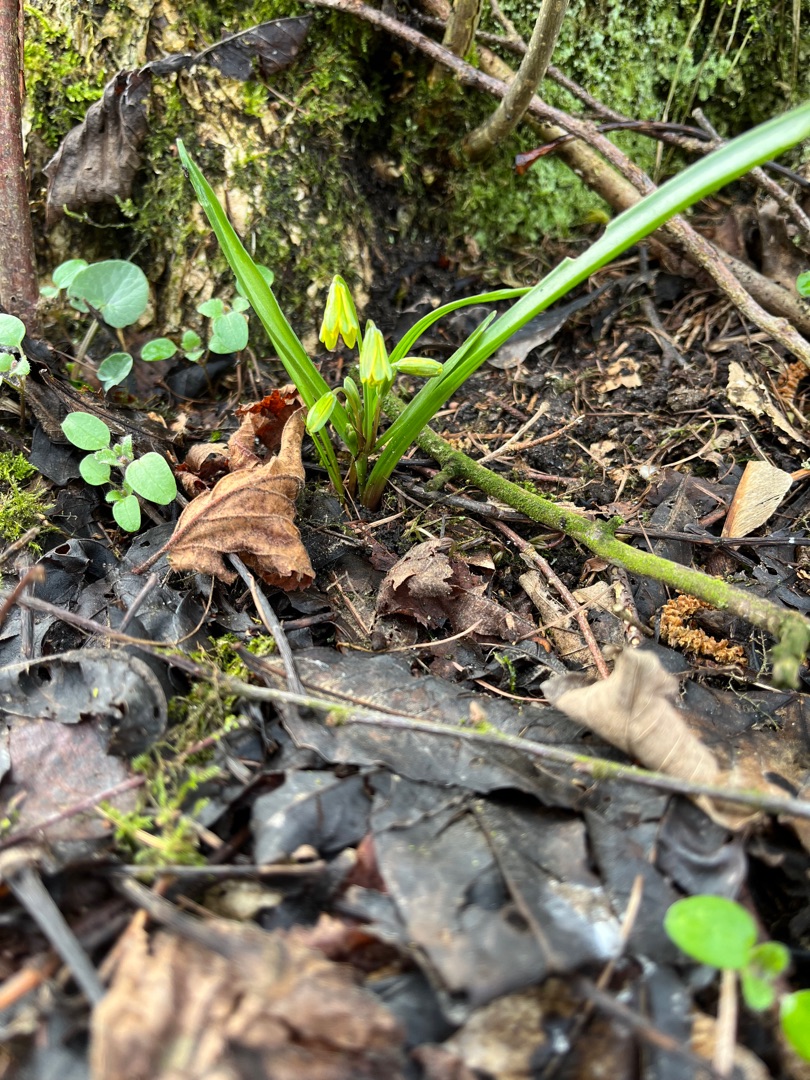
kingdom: Plantae
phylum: Tracheophyta
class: Liliopsida
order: Liliales
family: Liliaceae
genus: Gagea
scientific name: Gagea lutea
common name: Almindelig guldstjerne
